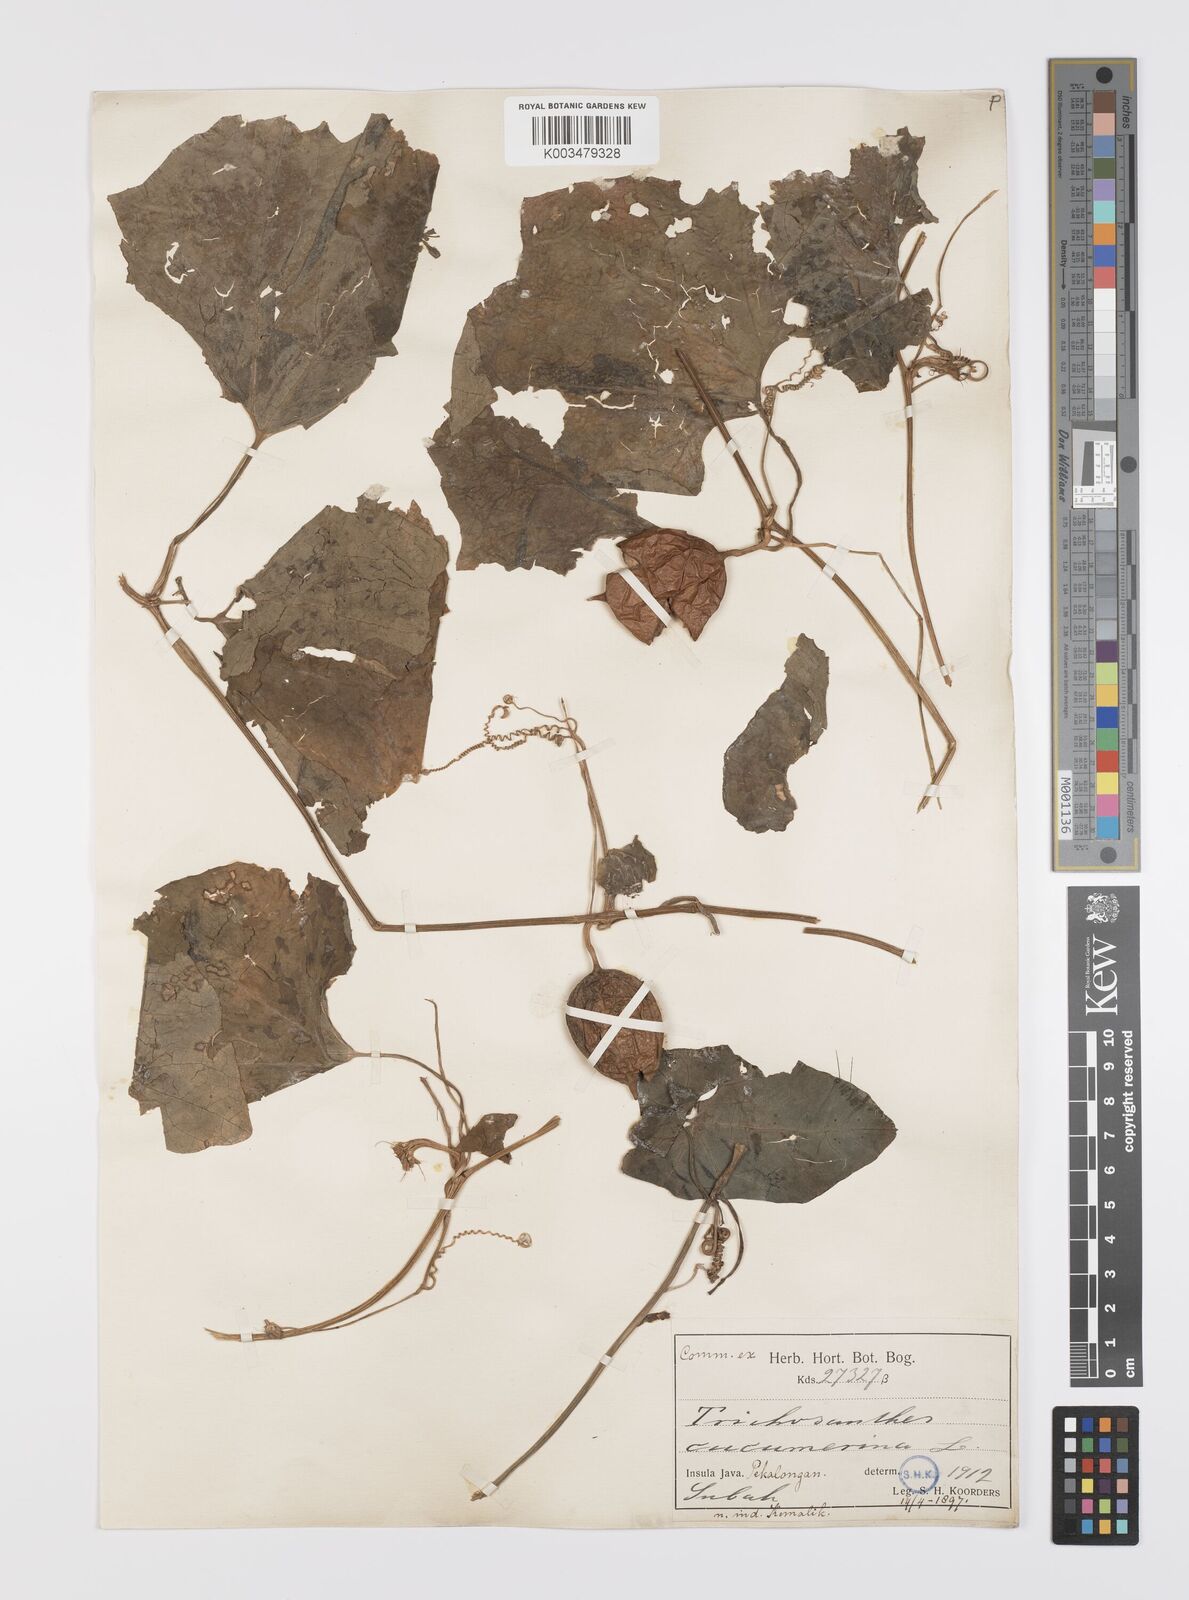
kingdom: Plantae
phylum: Tracheophyta
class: Magnoliopsida
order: Cucurbitales
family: Cucurbitaceae
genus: Trichosanthes
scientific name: Trichosanthes cucumerina
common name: Snakegourd
